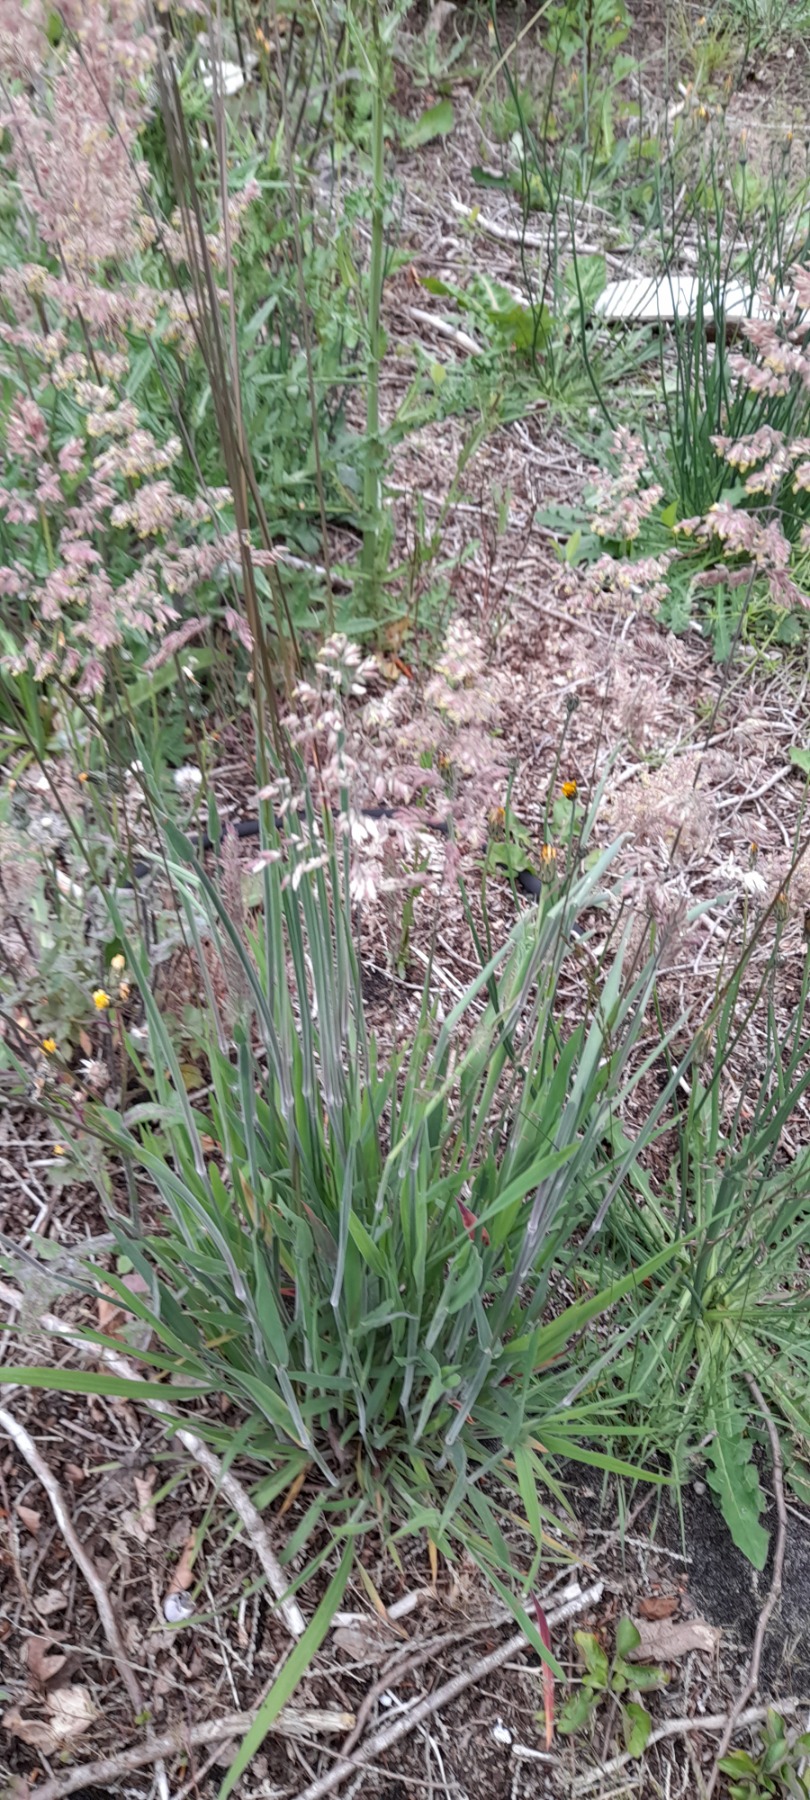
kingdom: Plantae
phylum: Tracheophyta
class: Liliopsida
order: Poales
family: Poaceae
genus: Holcus
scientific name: Holcus lanatus
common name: Fløjlsgræs
